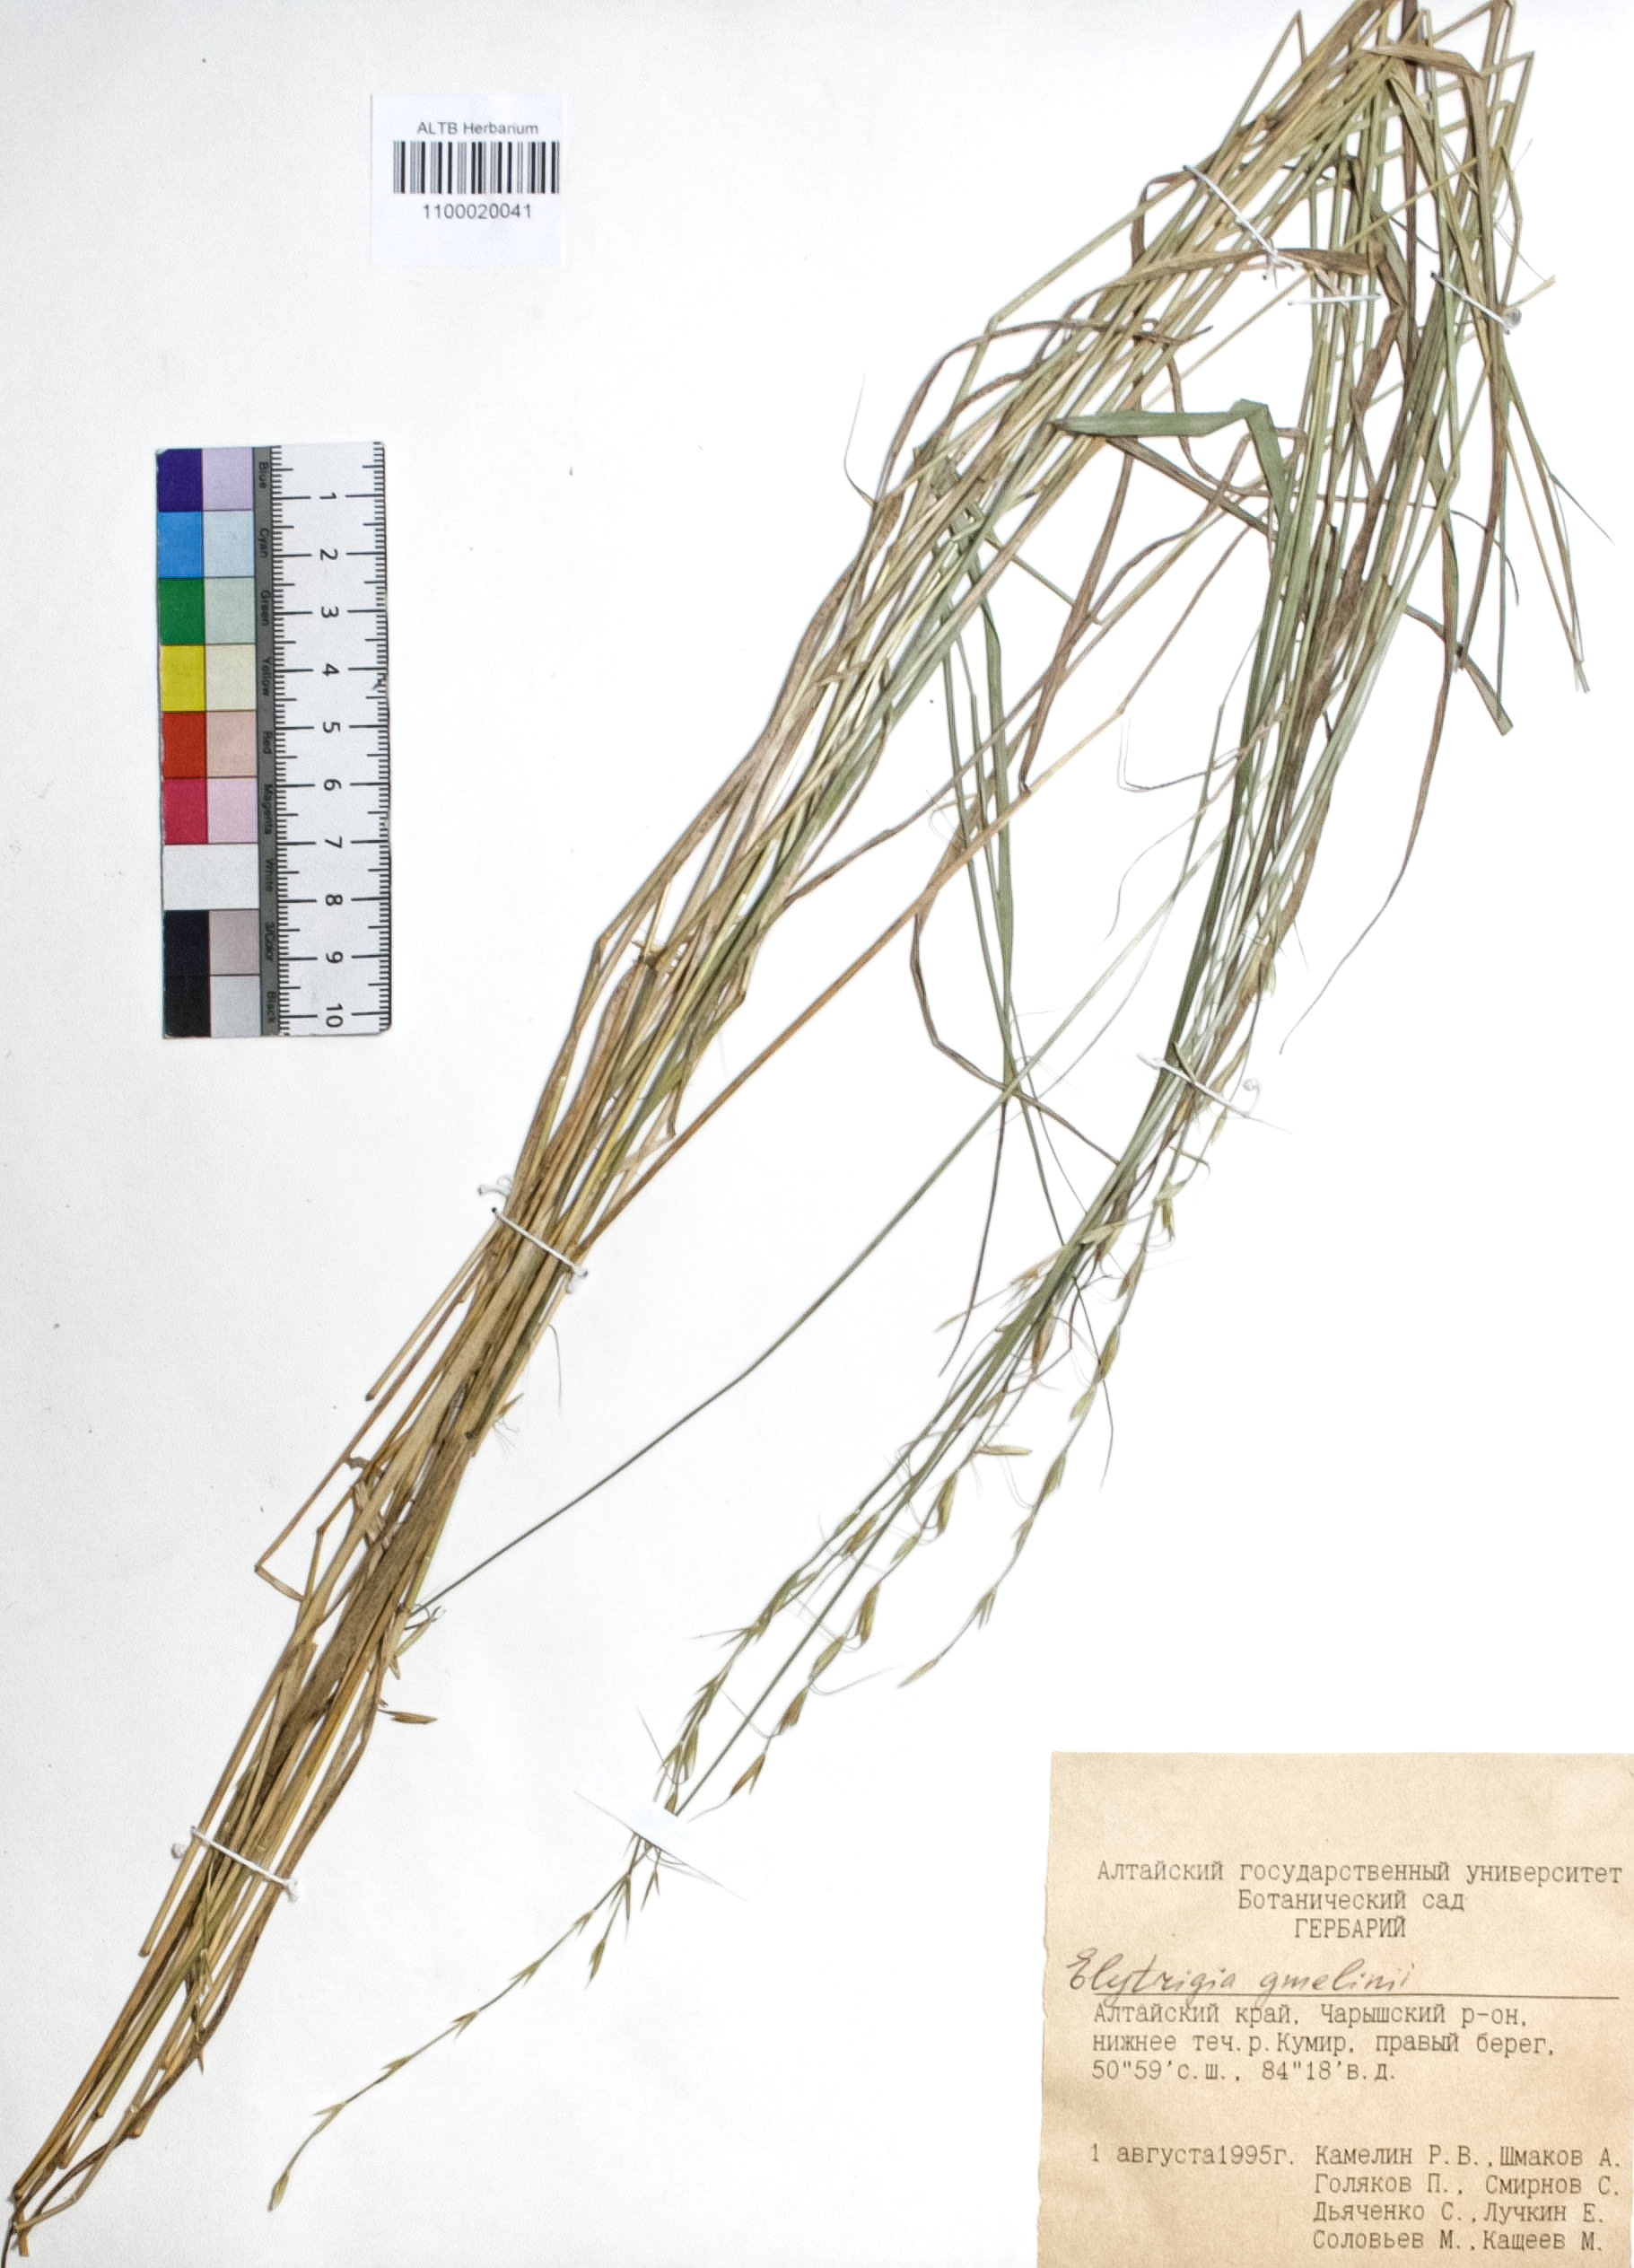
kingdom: Plantae
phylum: Tracheophyta
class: Liliopsida
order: Poales
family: Poaceae
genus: Pseudoroegneria
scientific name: Pseudoroegneria reflexiaristata
